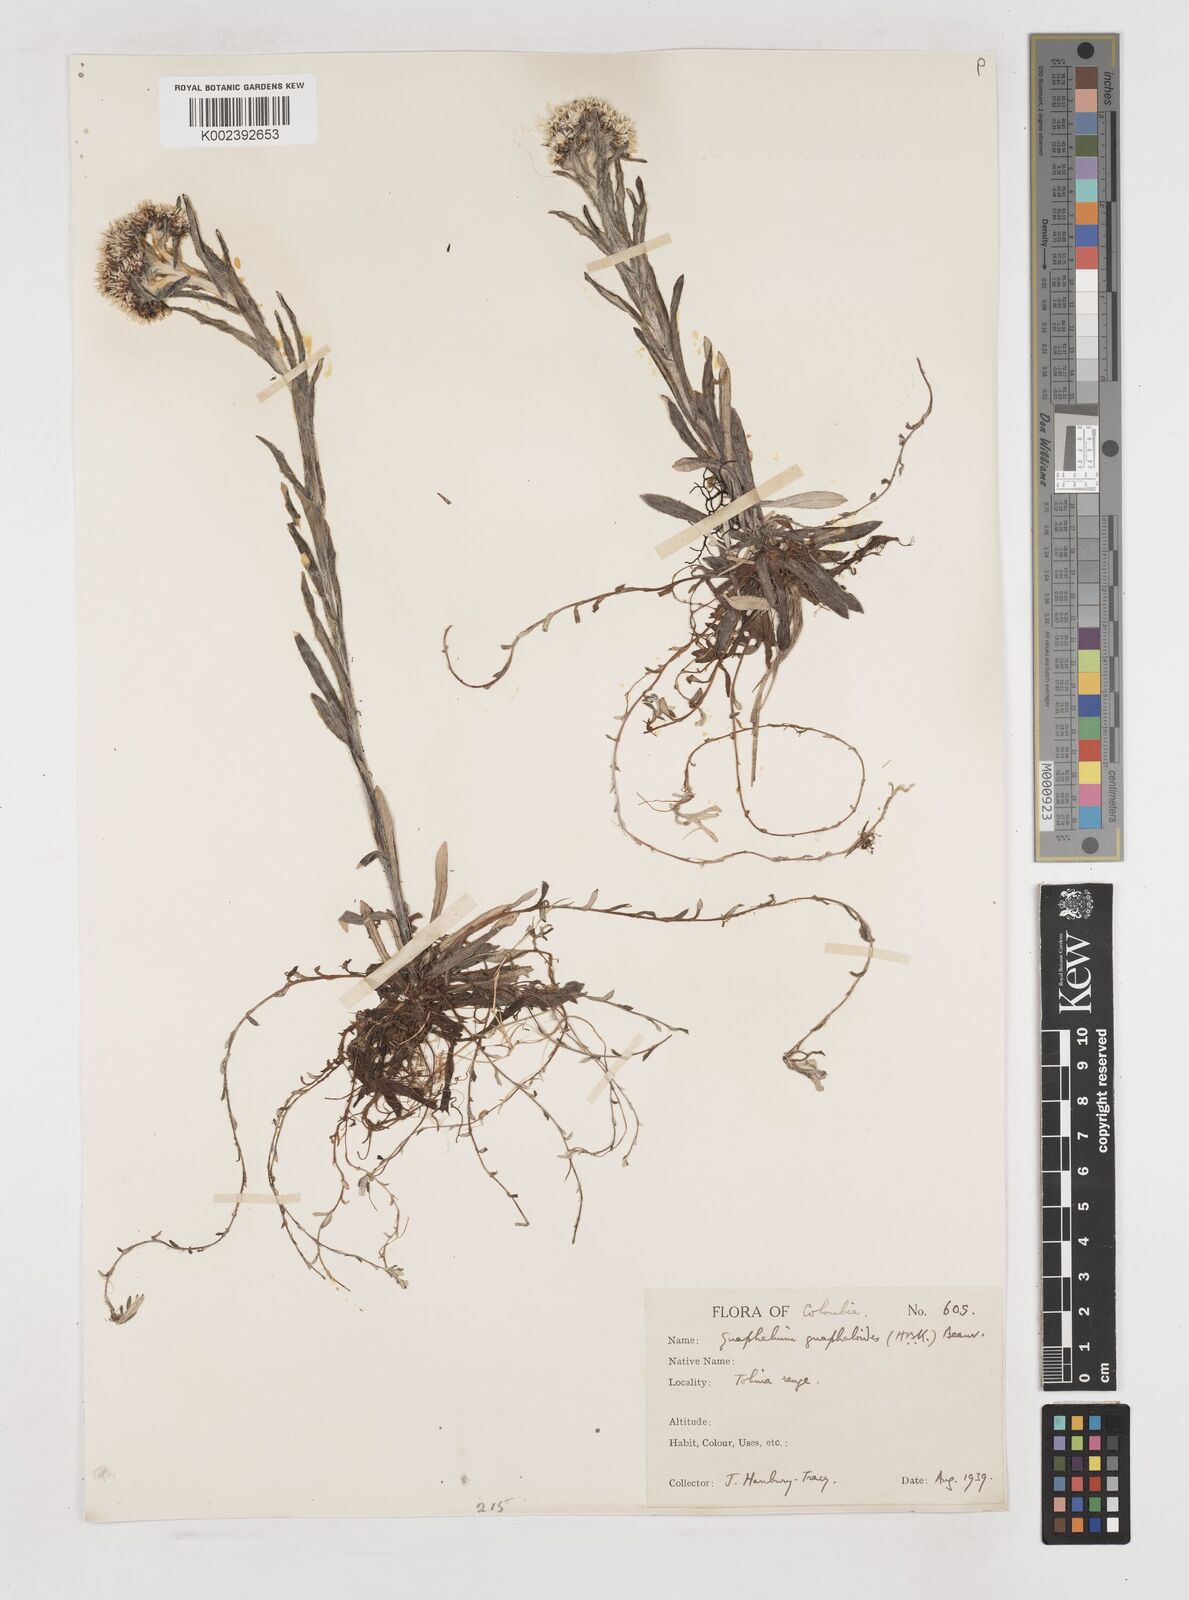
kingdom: Plantae
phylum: Tracheophyta
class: Magnoliopsida
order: Asterales
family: Asteraceae
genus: Gnaphalium
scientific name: Gnaphalium
